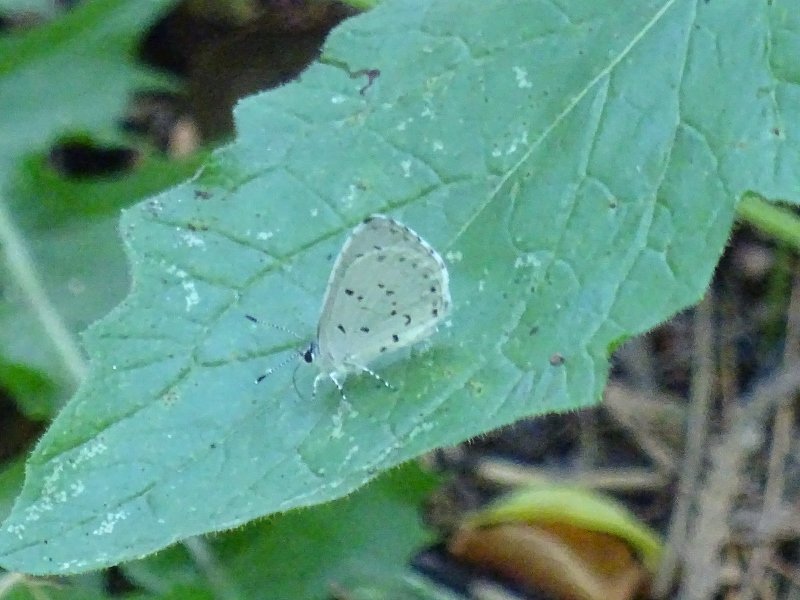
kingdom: Animalia
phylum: Arthropoda
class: Insecta
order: Lepidoptera
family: Lycaenidae
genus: Celastrina
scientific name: Celastrina
